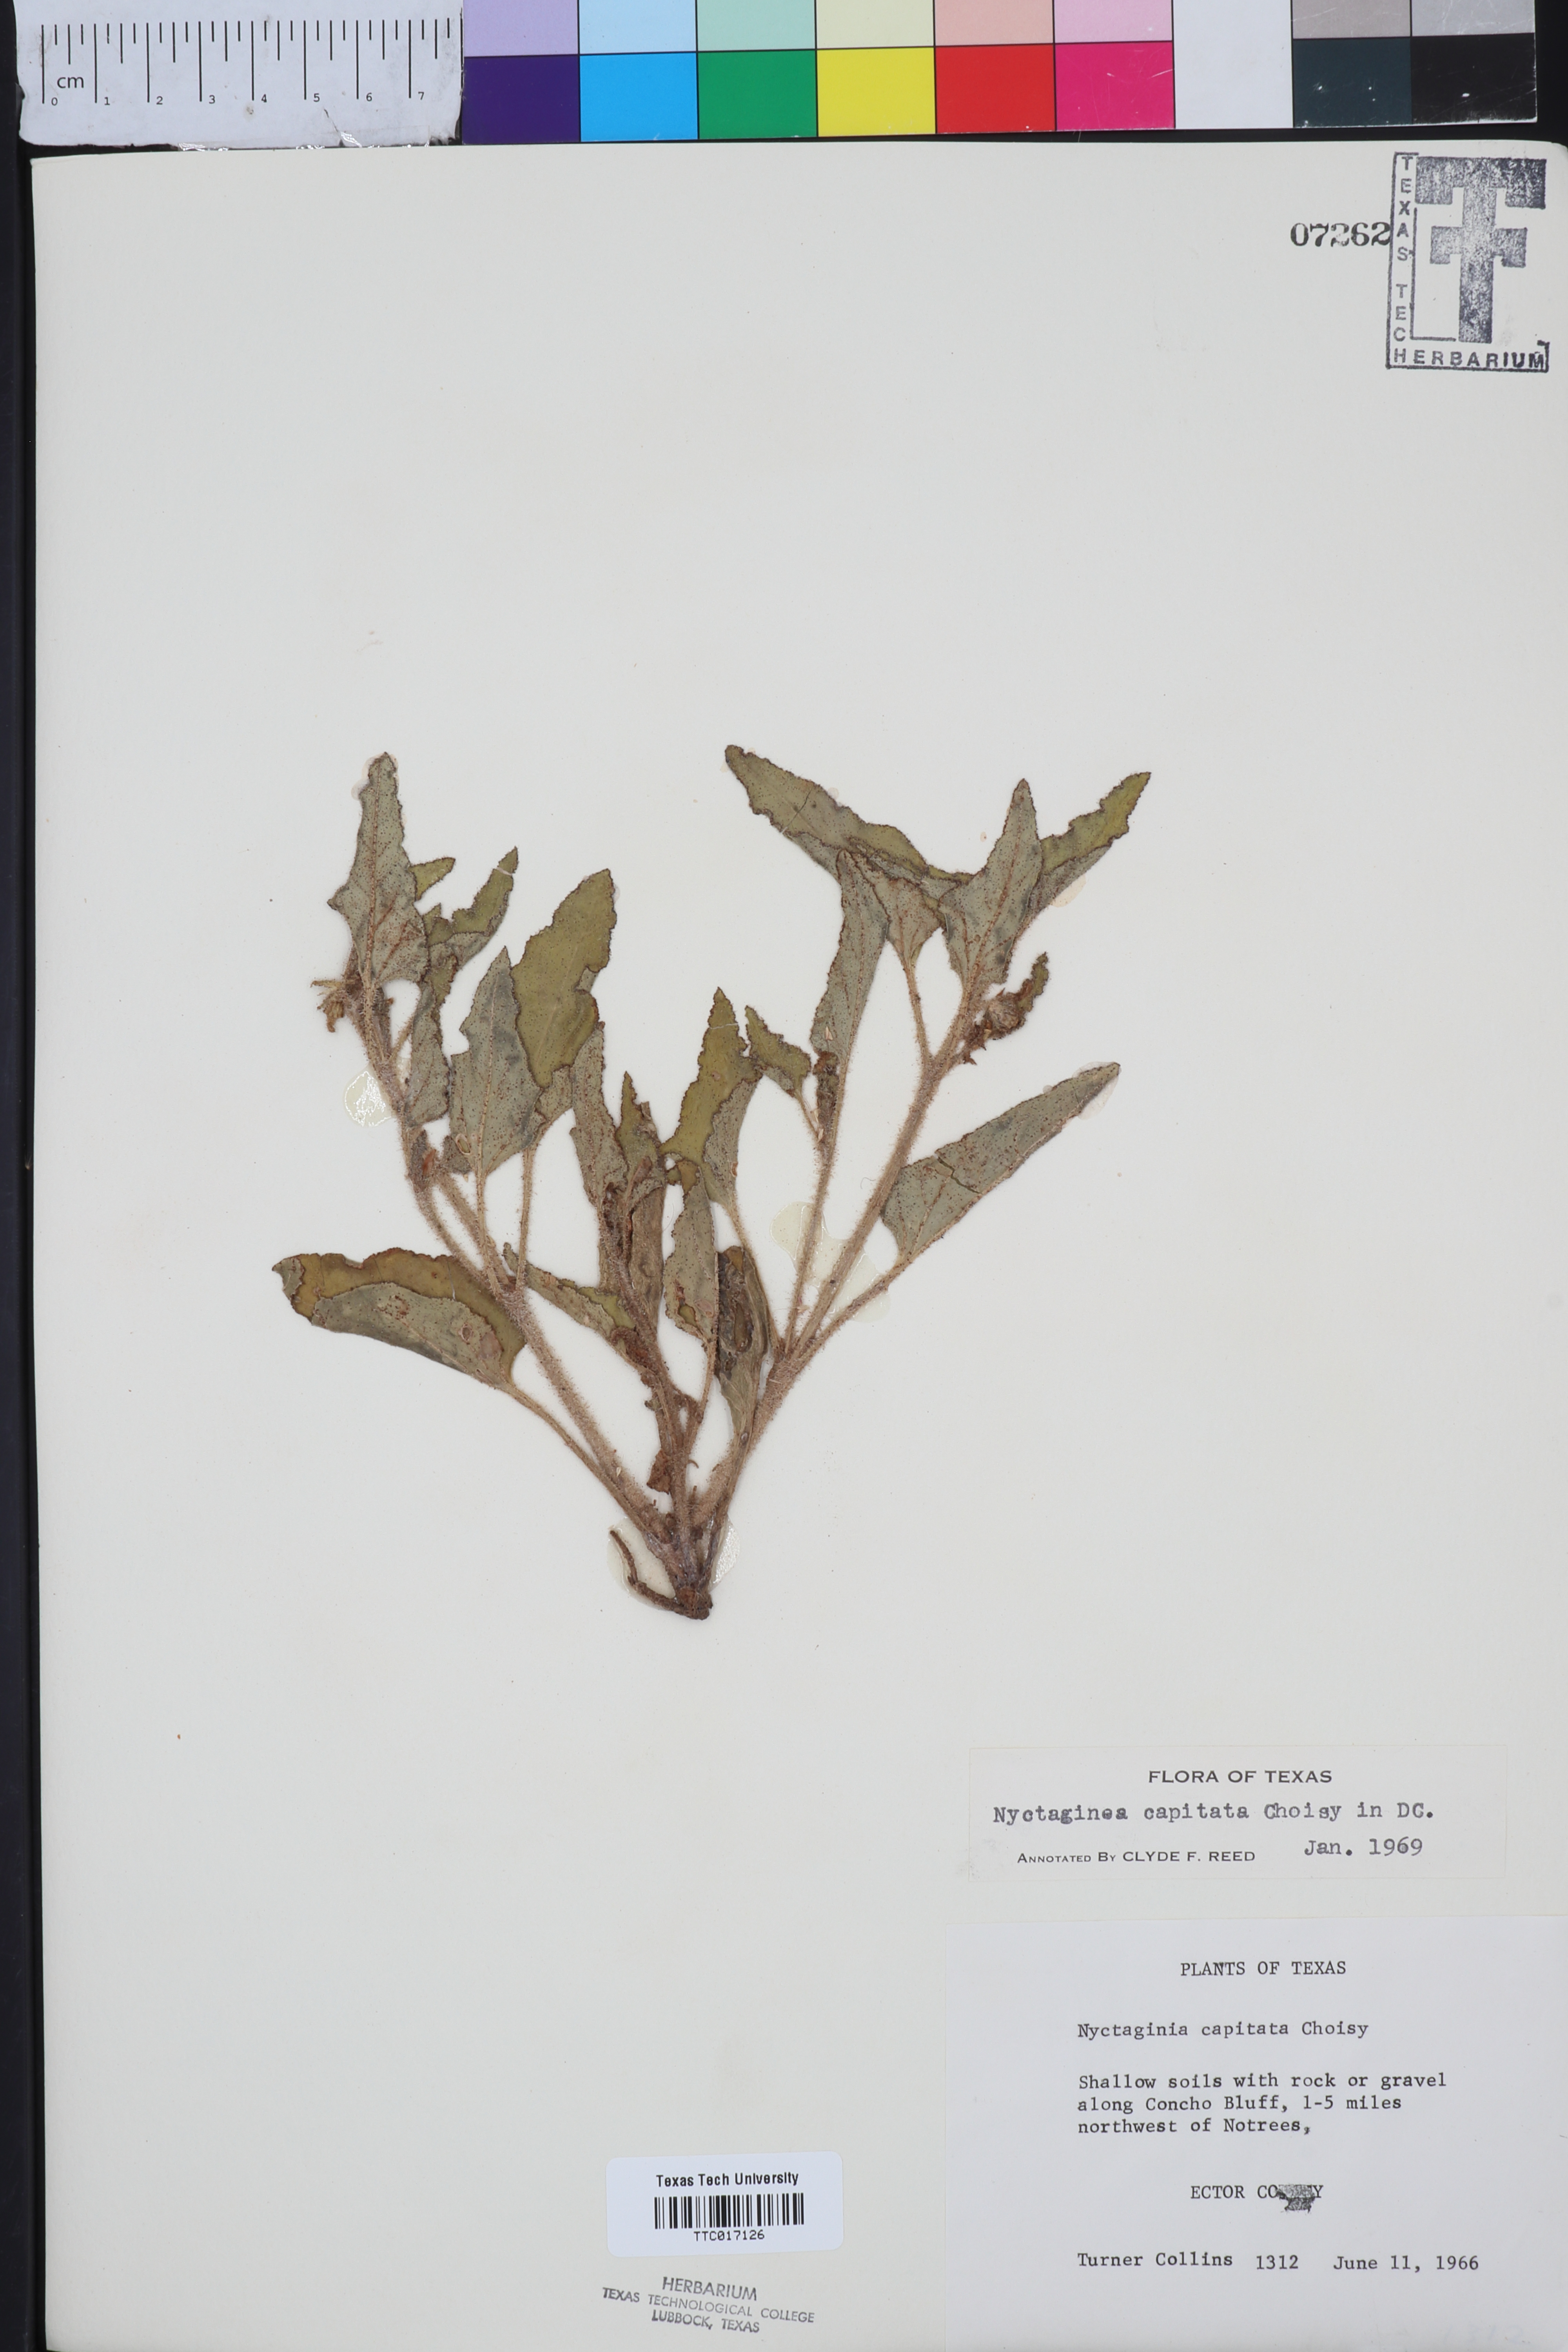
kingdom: Plantae
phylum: Tracheophyta
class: Magnoliopsida
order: Caryophyllales
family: Nyctaginaceae
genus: Nyctaginia
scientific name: Nyctaginia capitata
